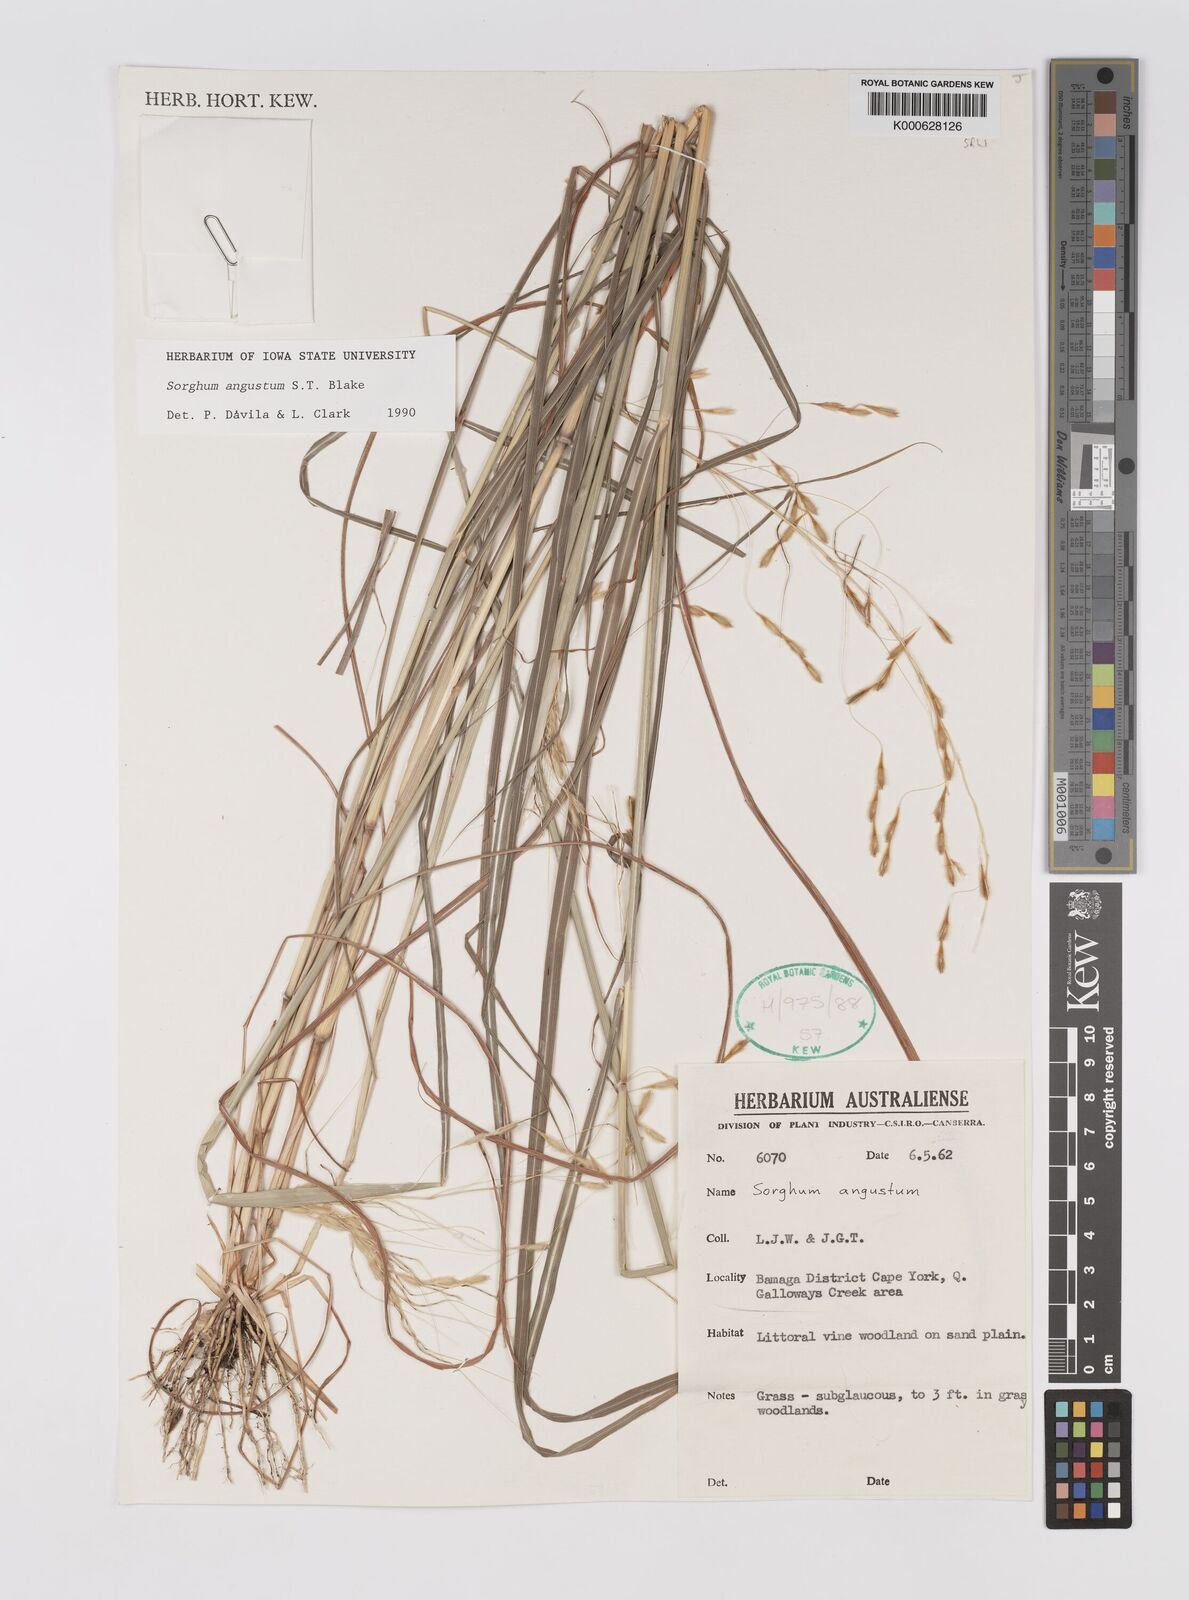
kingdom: Plantae
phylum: Tracheophyta
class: Liliopsida
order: Poales
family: Poaceae
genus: Sarga
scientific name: Sarga angusta
